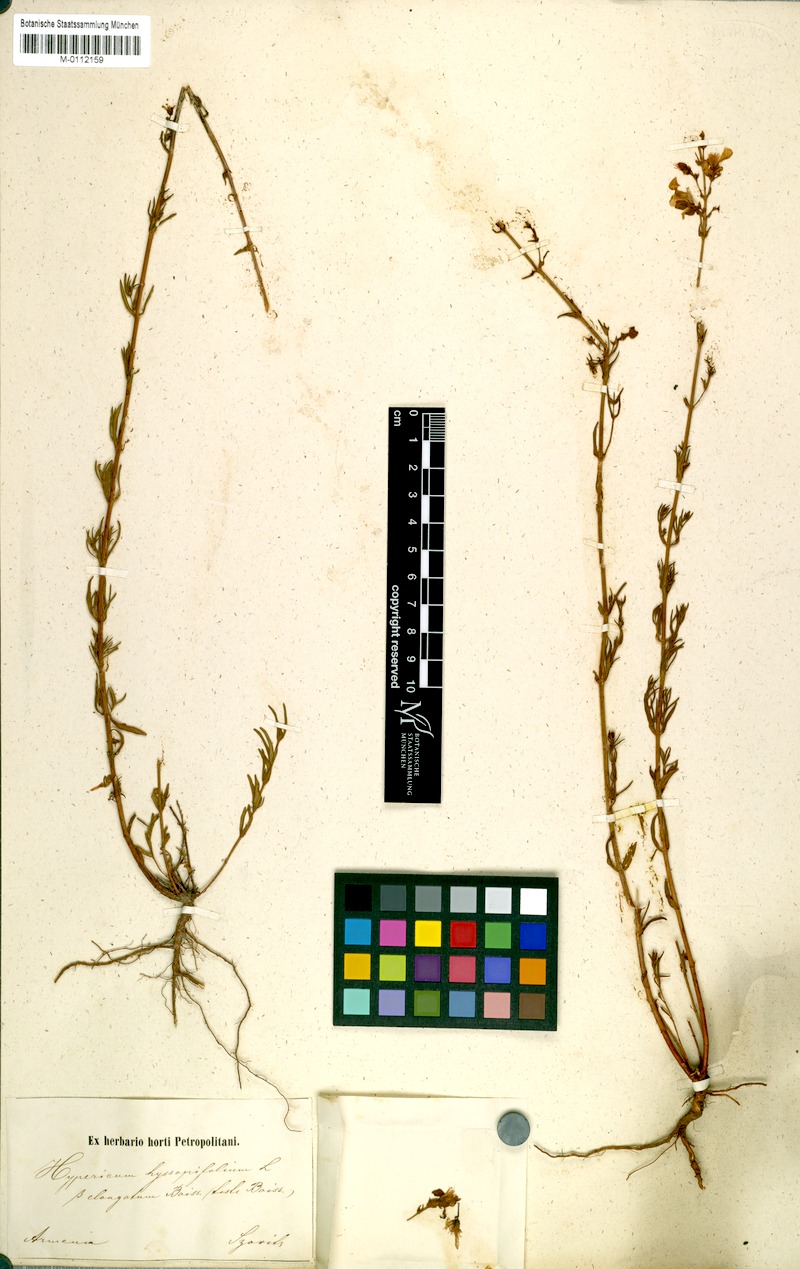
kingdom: Plantae
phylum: Tracheophyta
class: Magnoliopsida
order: Malpighiales
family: Hypericaceae
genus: Hypericum
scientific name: Hypericum hyssopifolium
